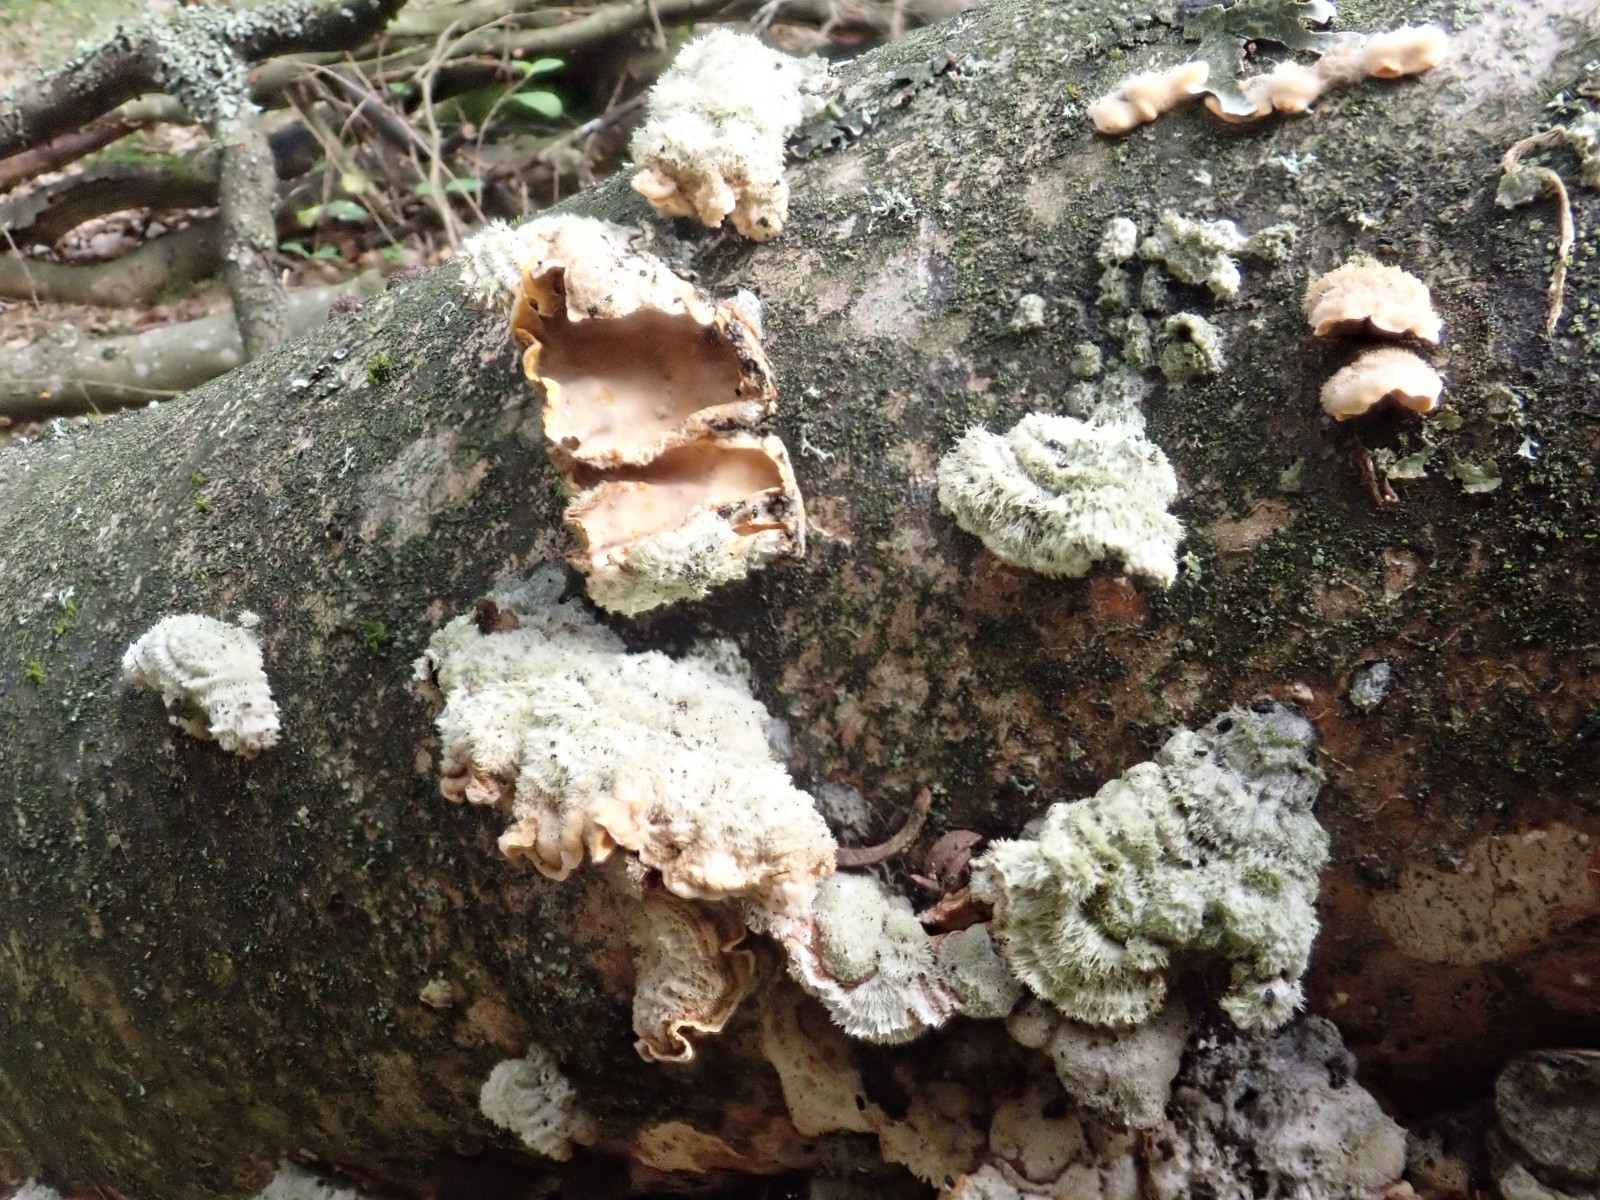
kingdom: Fungi
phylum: Basidiomycota
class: Agaricomycetes
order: Russulales
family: Stereaceae
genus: Stereum
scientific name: Stereum hirsutum
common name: håret lædersvamp
